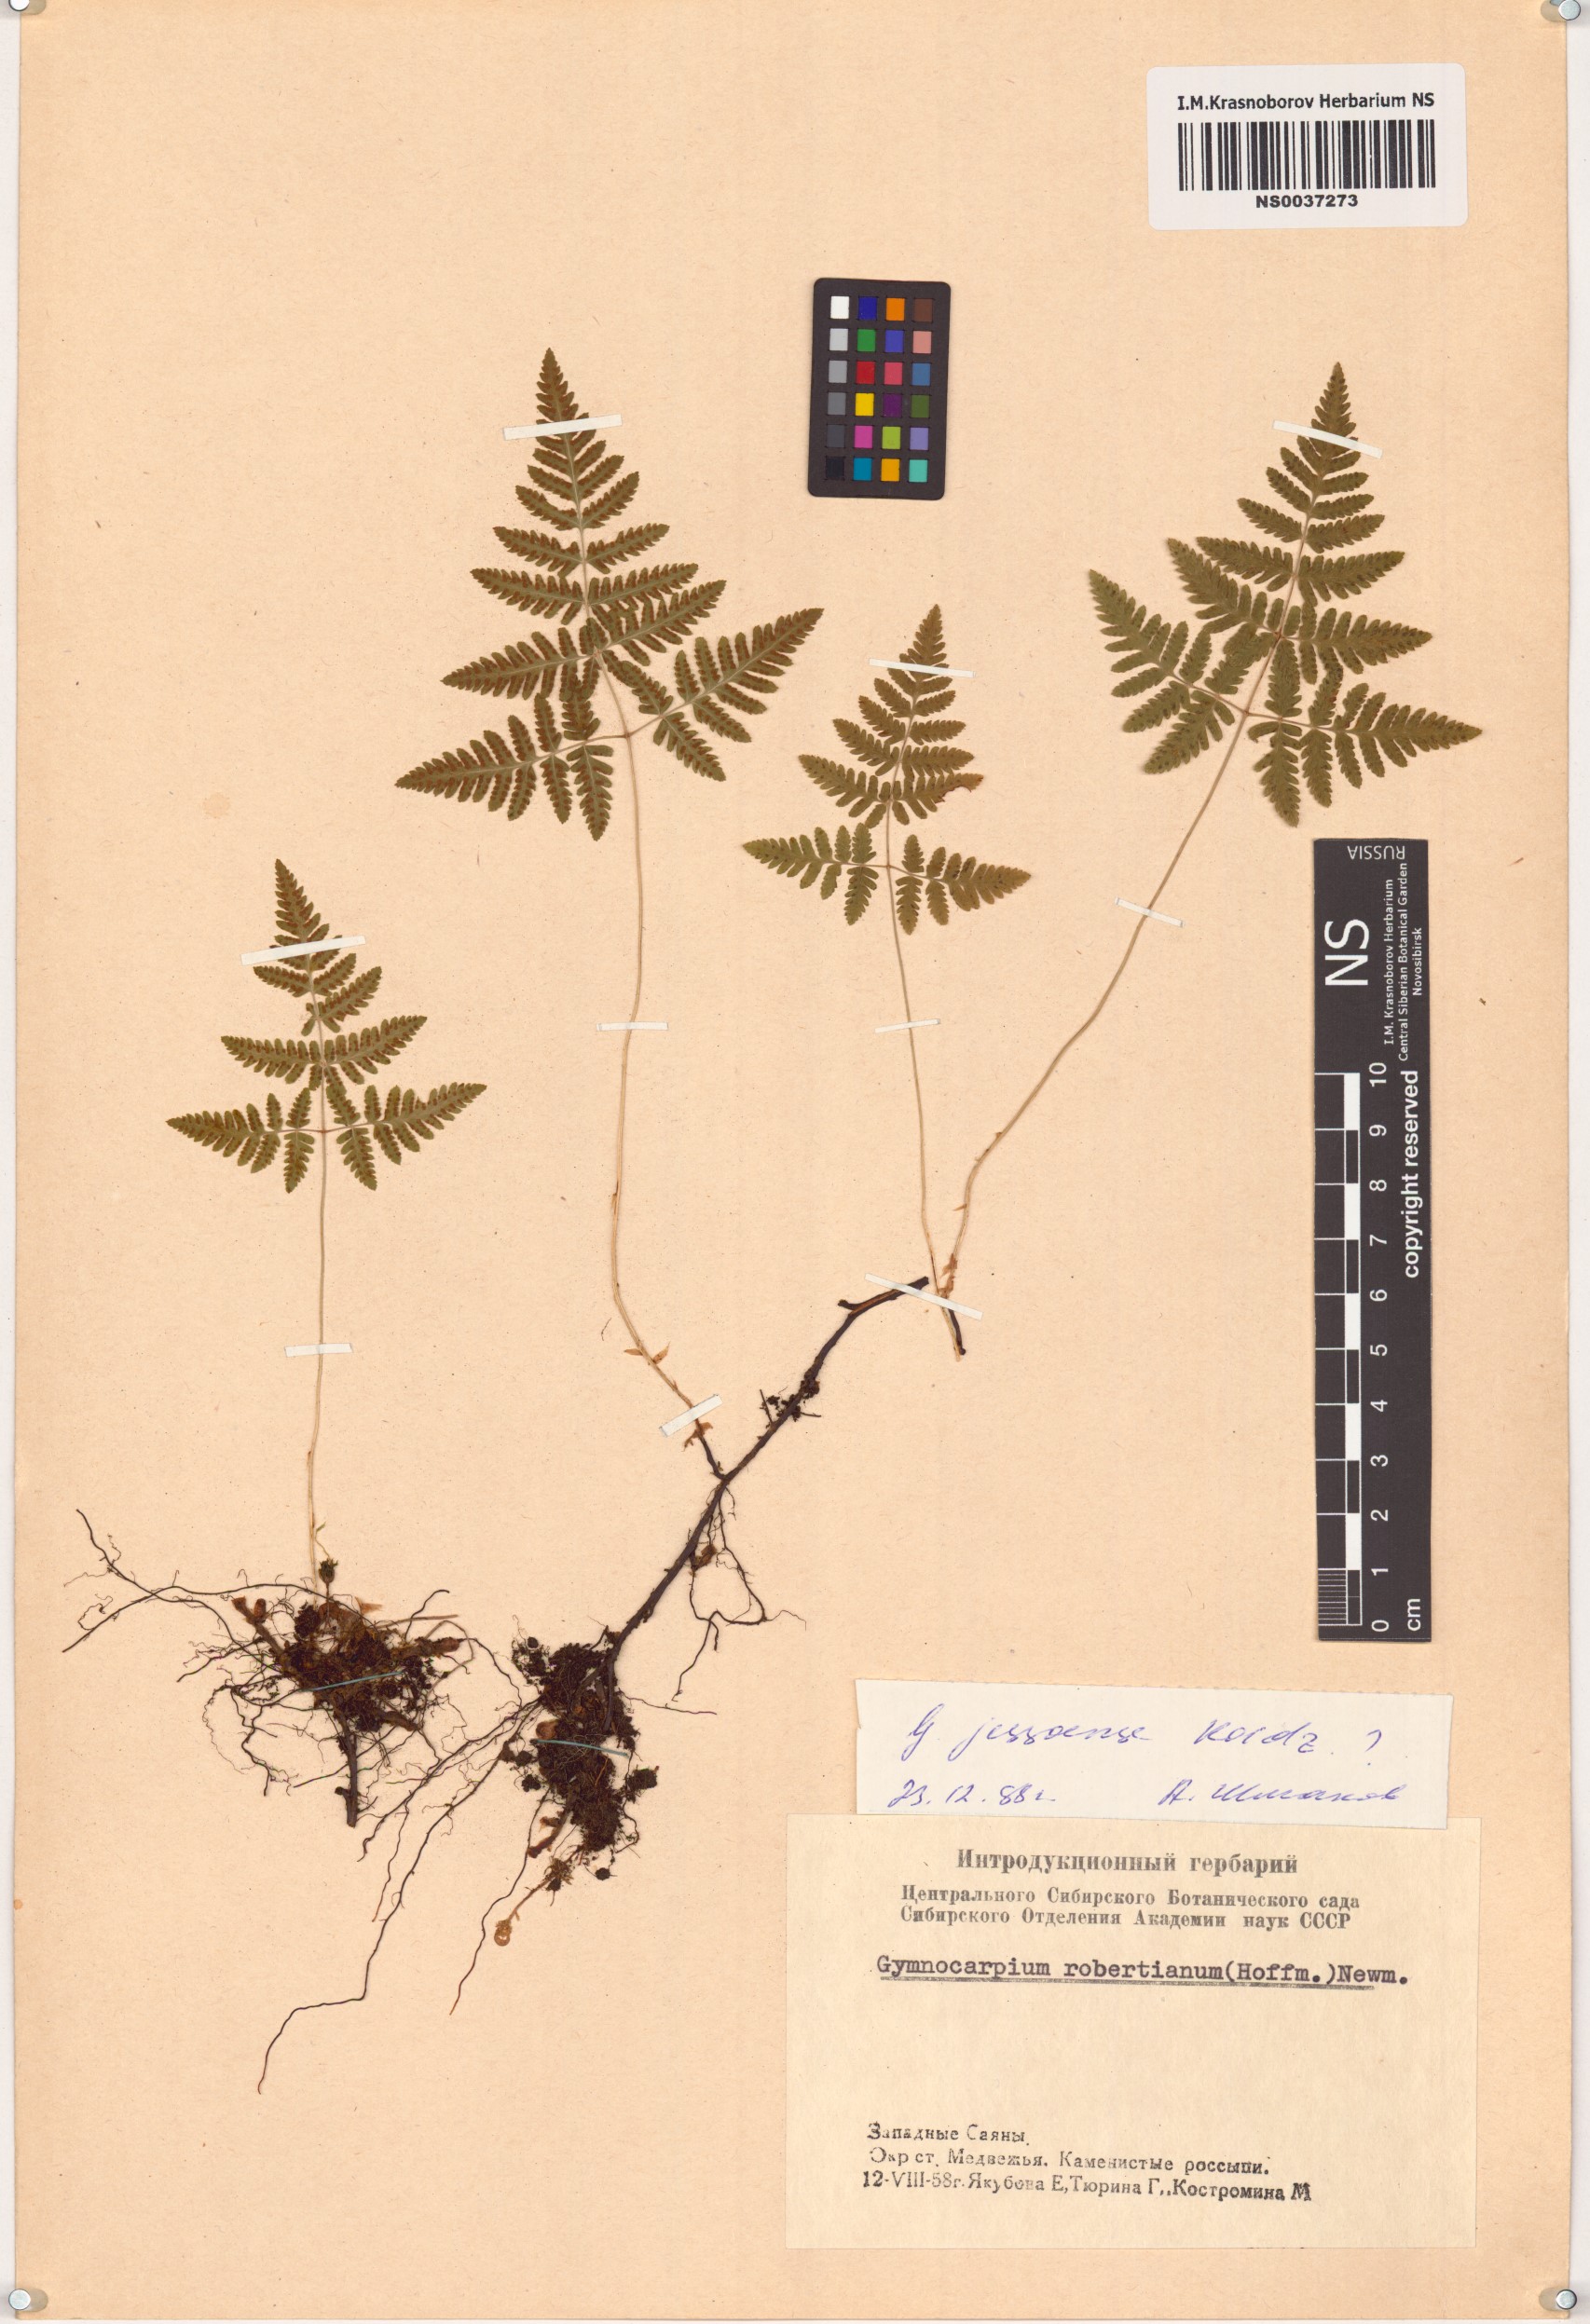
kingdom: Plantae
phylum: Tracheophyta
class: Polypodiopsida
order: Polypodiales
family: Cystopteridaceae
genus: Gymnocarpium
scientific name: Gymnocarpium jessoense
